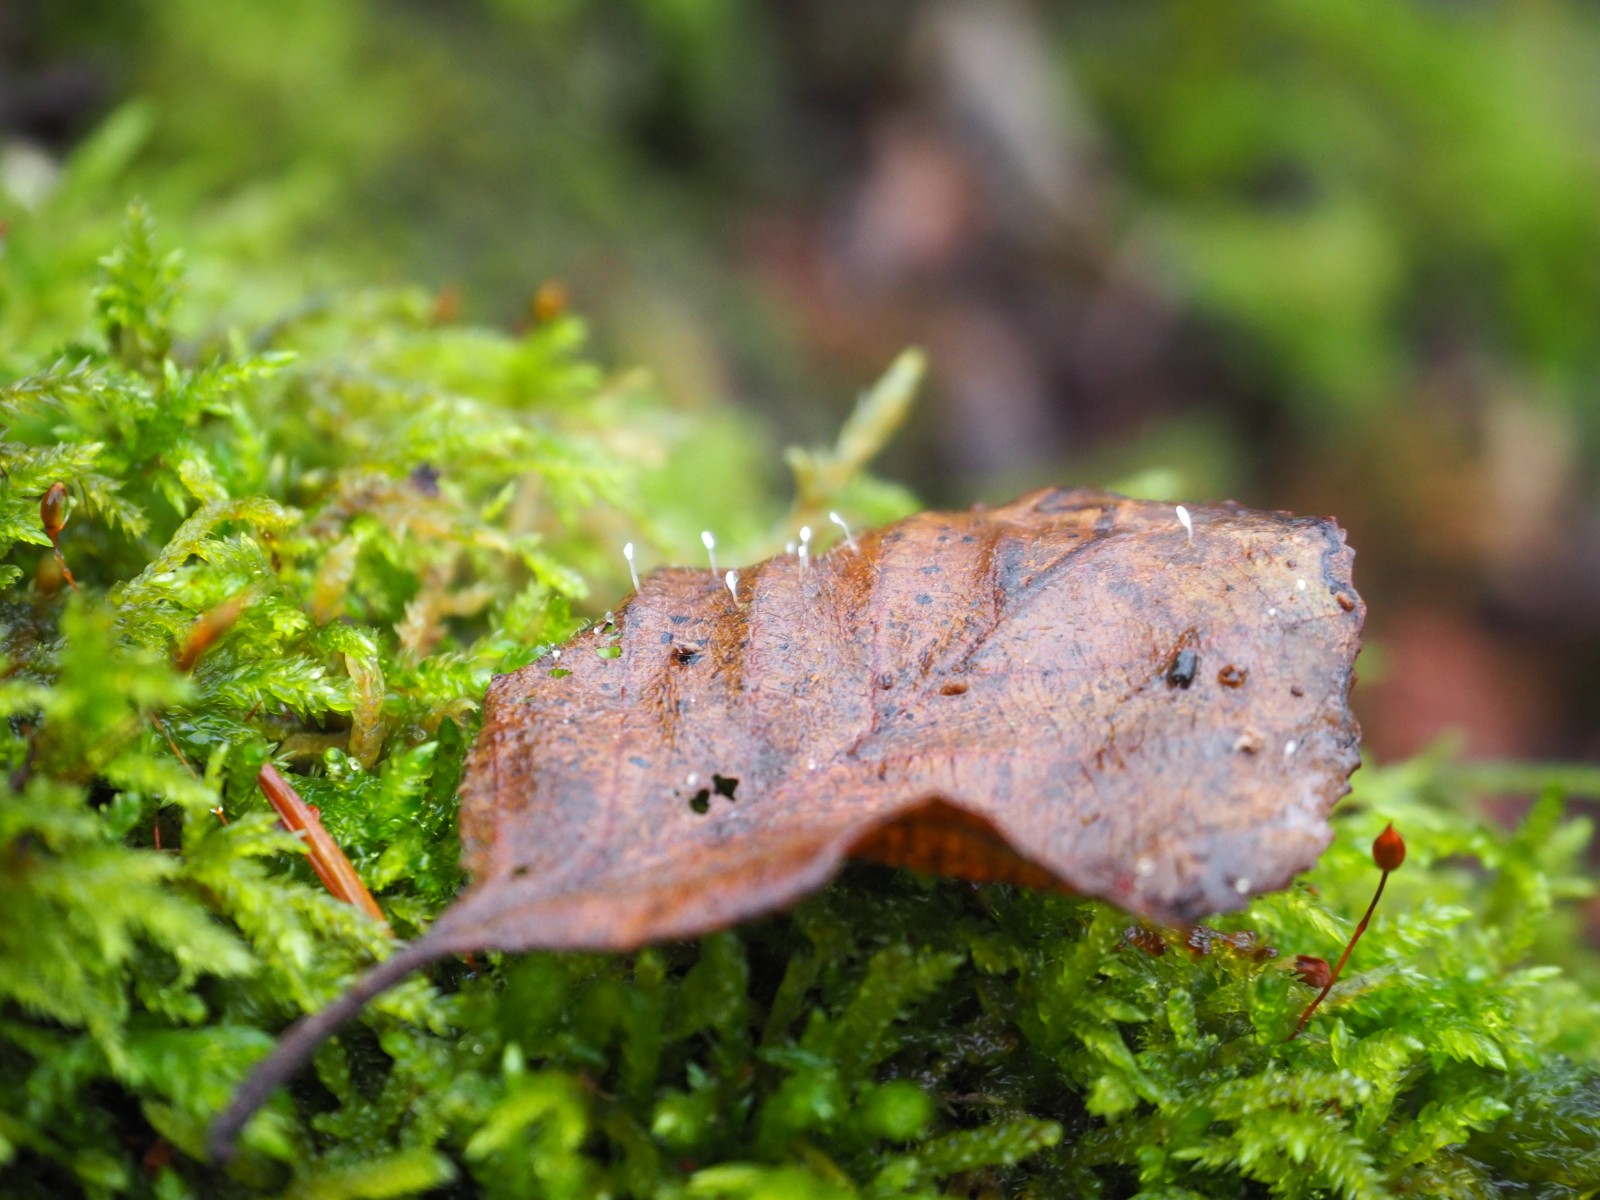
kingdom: Fungi
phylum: Basidiomycota
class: Agaricomycetes
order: Agaricales
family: Typhulaceae
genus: Typhula
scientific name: Typhula setipes
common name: liden trådkølle
